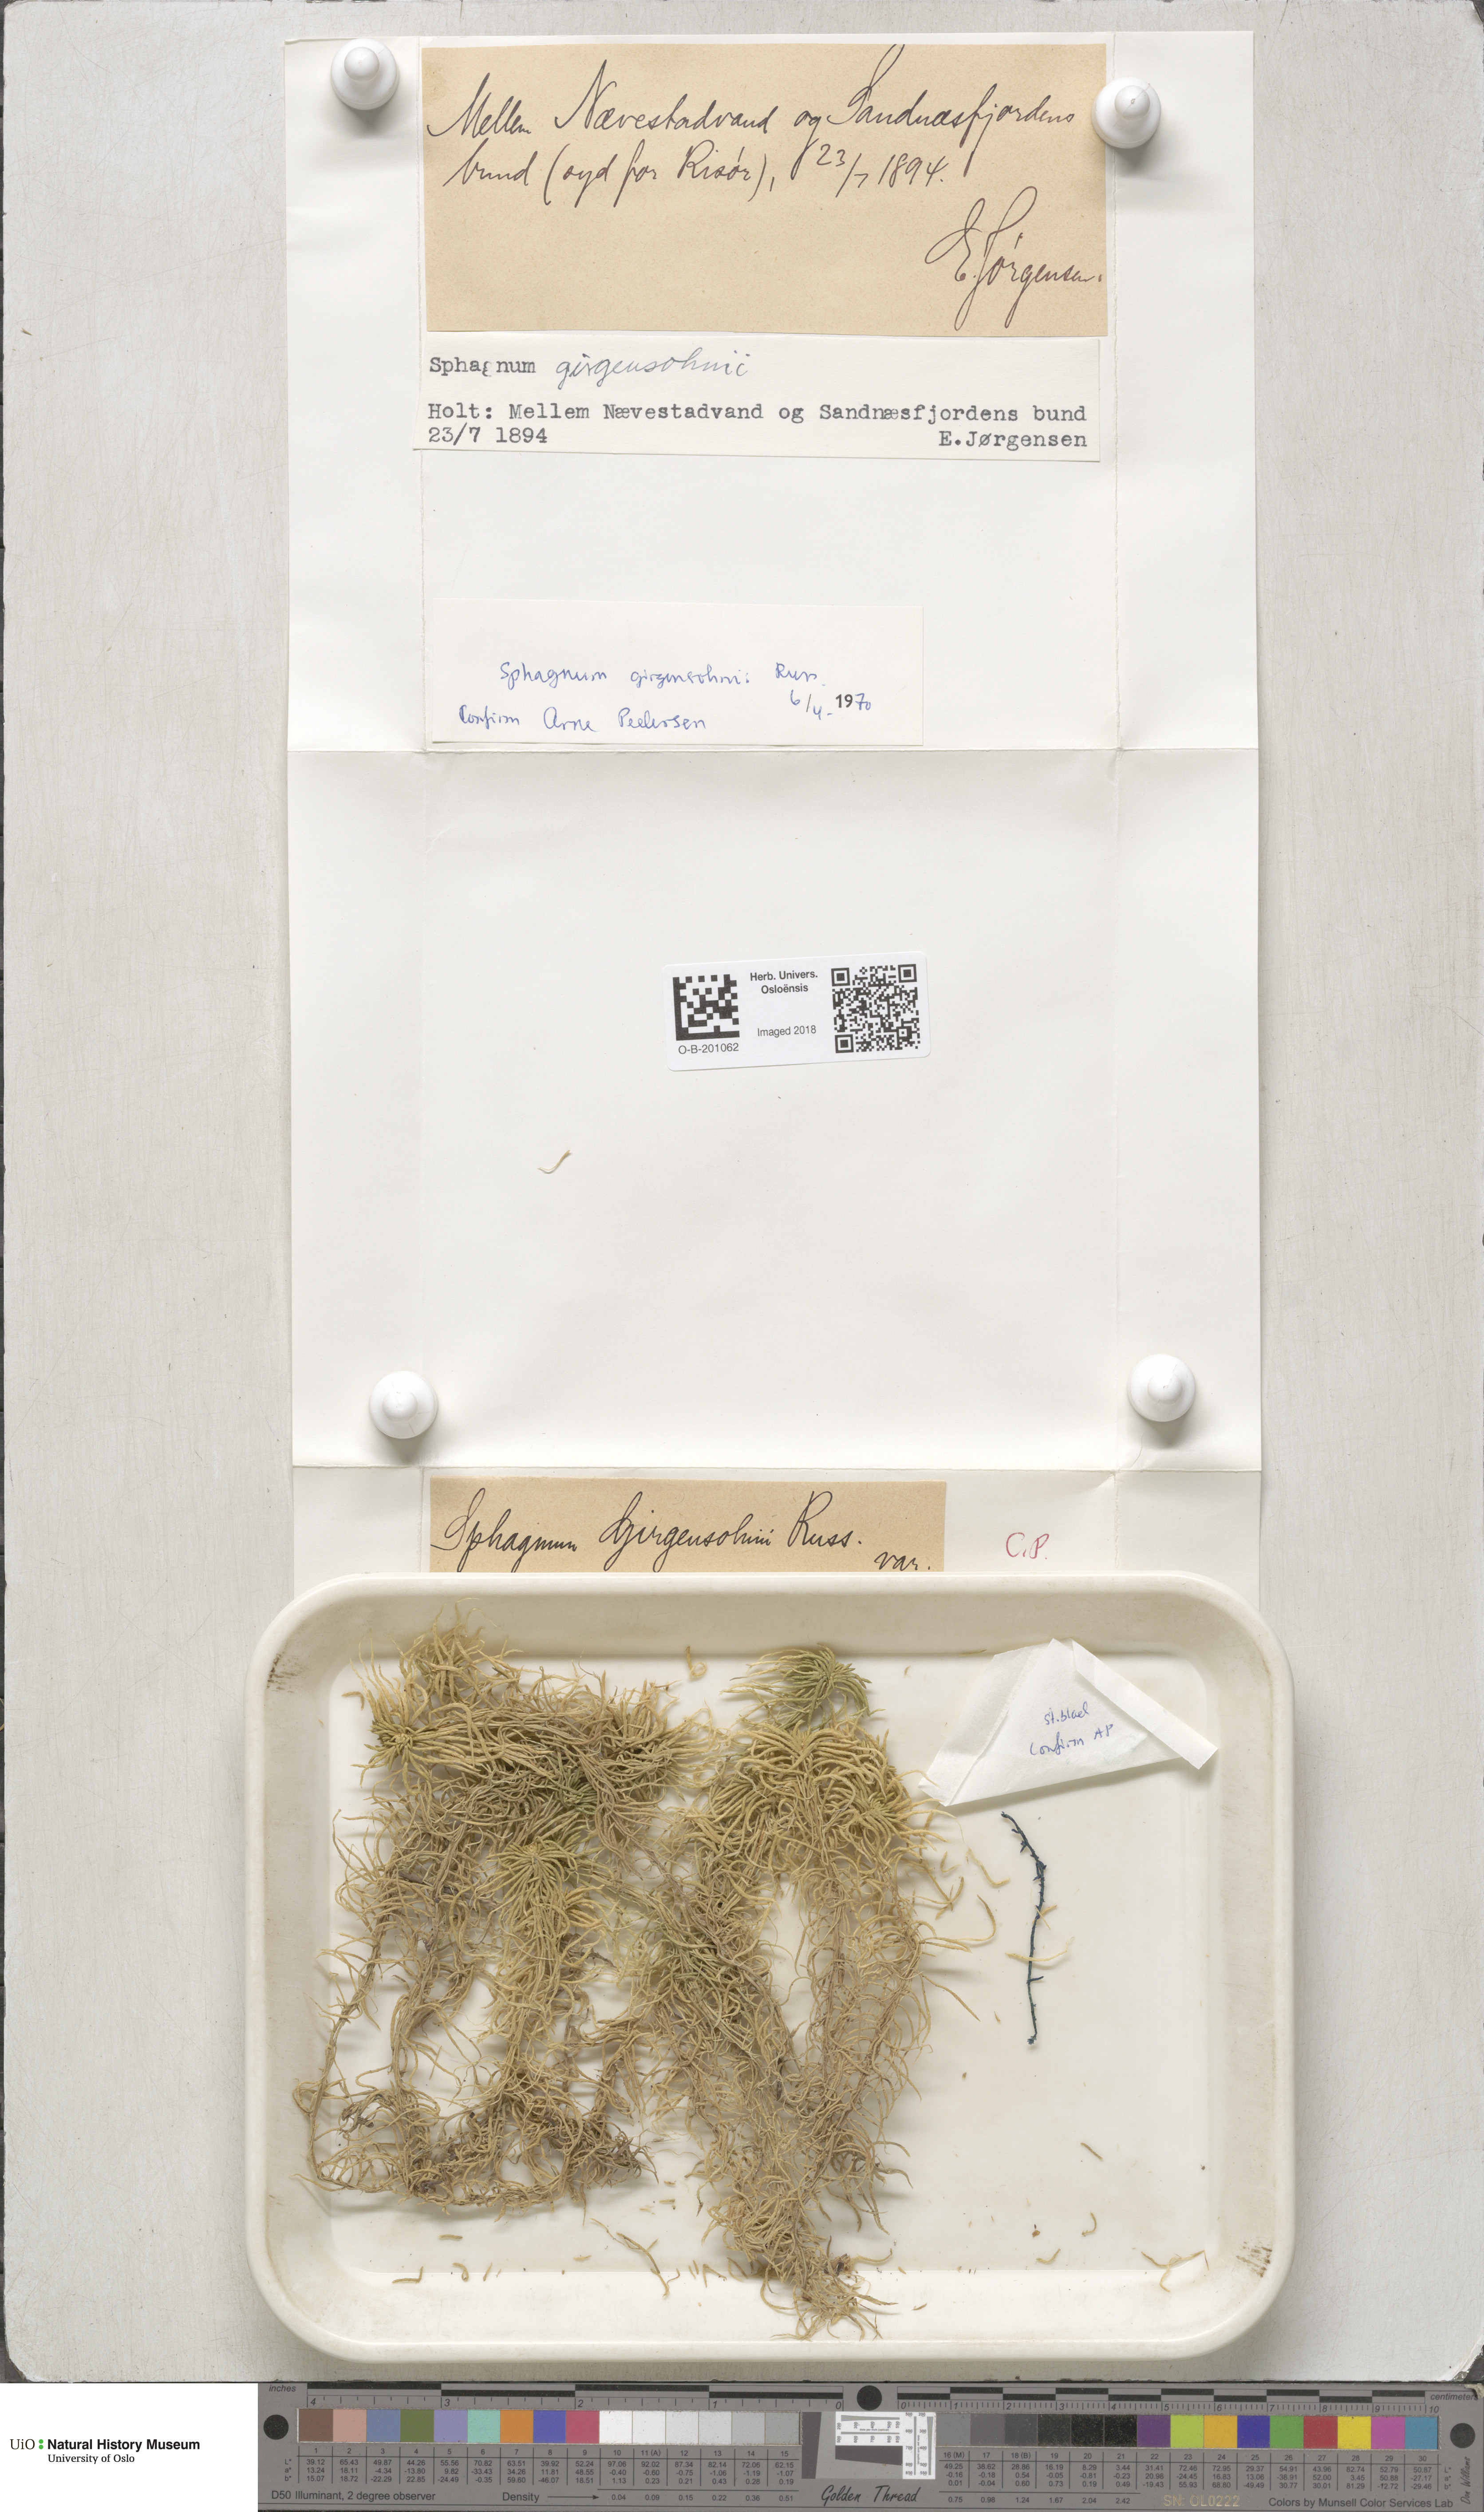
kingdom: Plantae
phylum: Bryophyta
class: Sphagnopsida
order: Sphagnales
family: Sphagnaceae
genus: Sphagnum
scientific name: Sphagnum girgensohnii
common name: Girgensohn's peat moss
